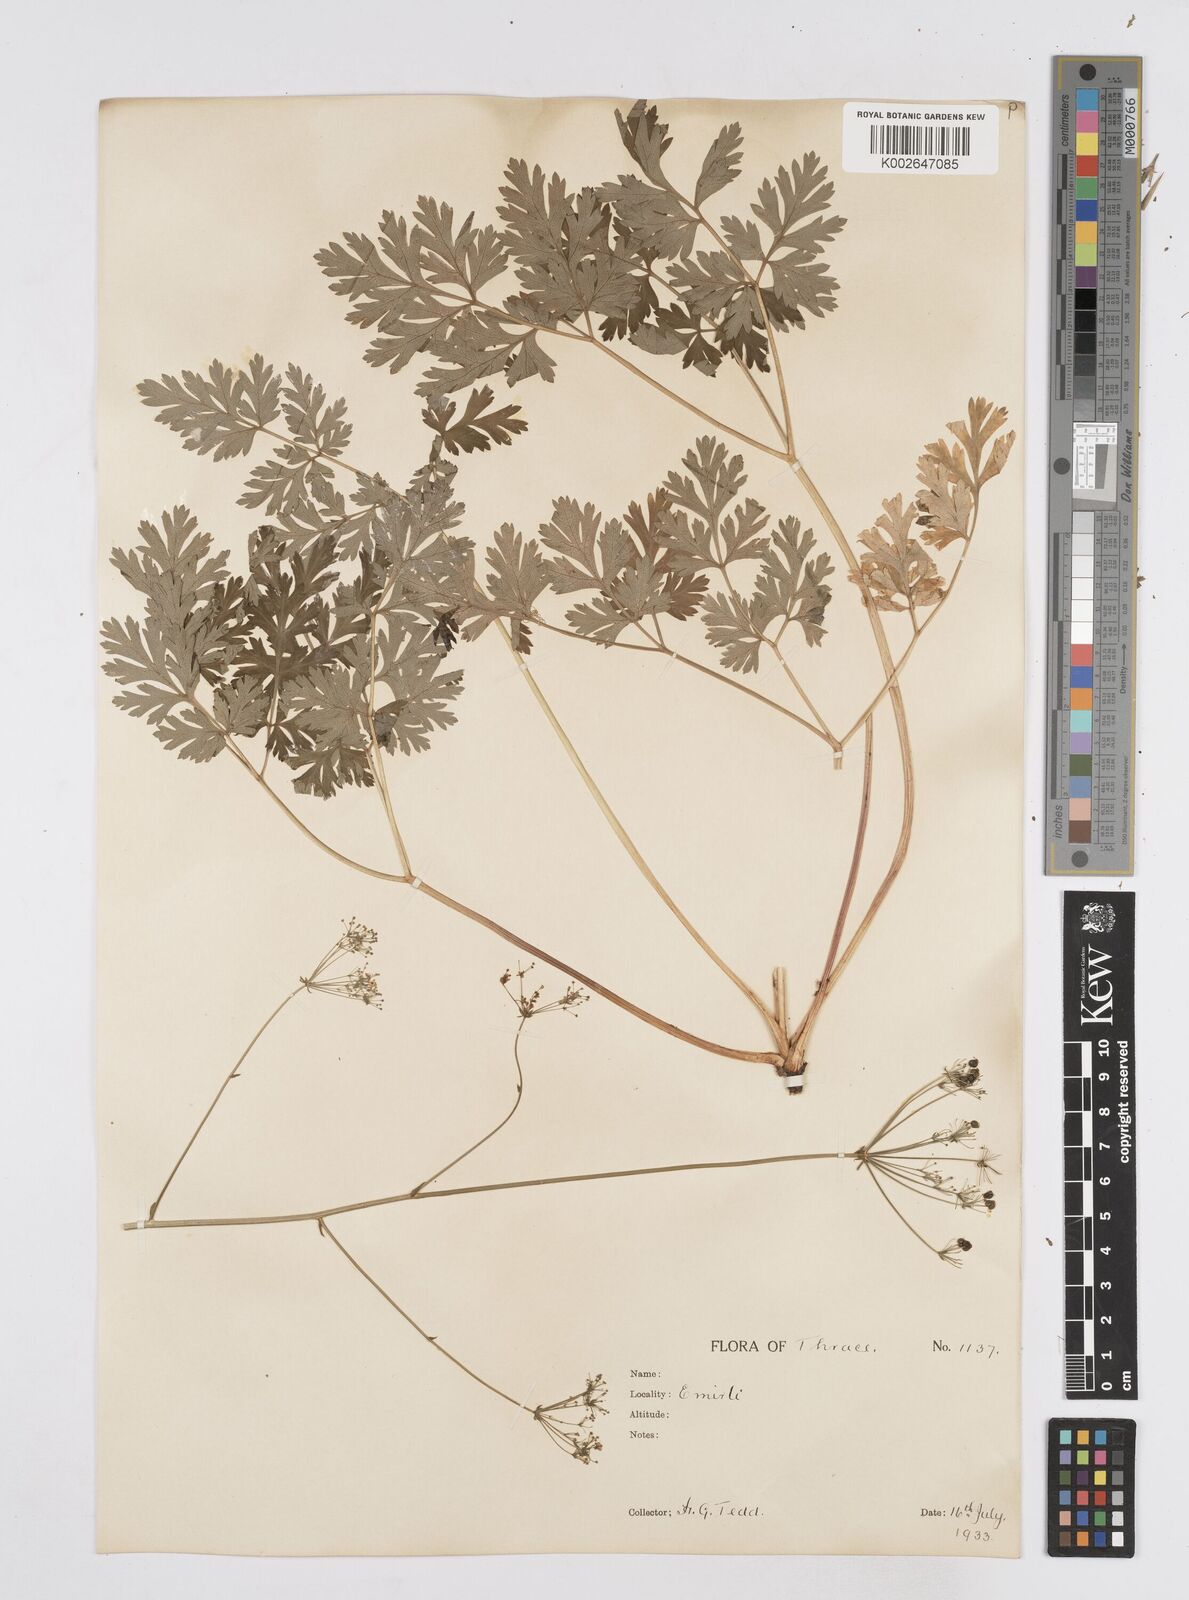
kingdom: Plantae
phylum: Tracheophyta
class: Magnoliopsida
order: Apiales
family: Apiaceae
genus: Physospermum
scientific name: Physospermum cornubiense
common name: Bladderseed
